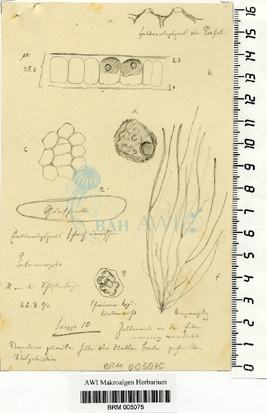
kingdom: Plantae
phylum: Chlorophyta
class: Ulvophyceae
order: Ulvales
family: Ulvaceae
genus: Ulva
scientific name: Ulva clathrata
